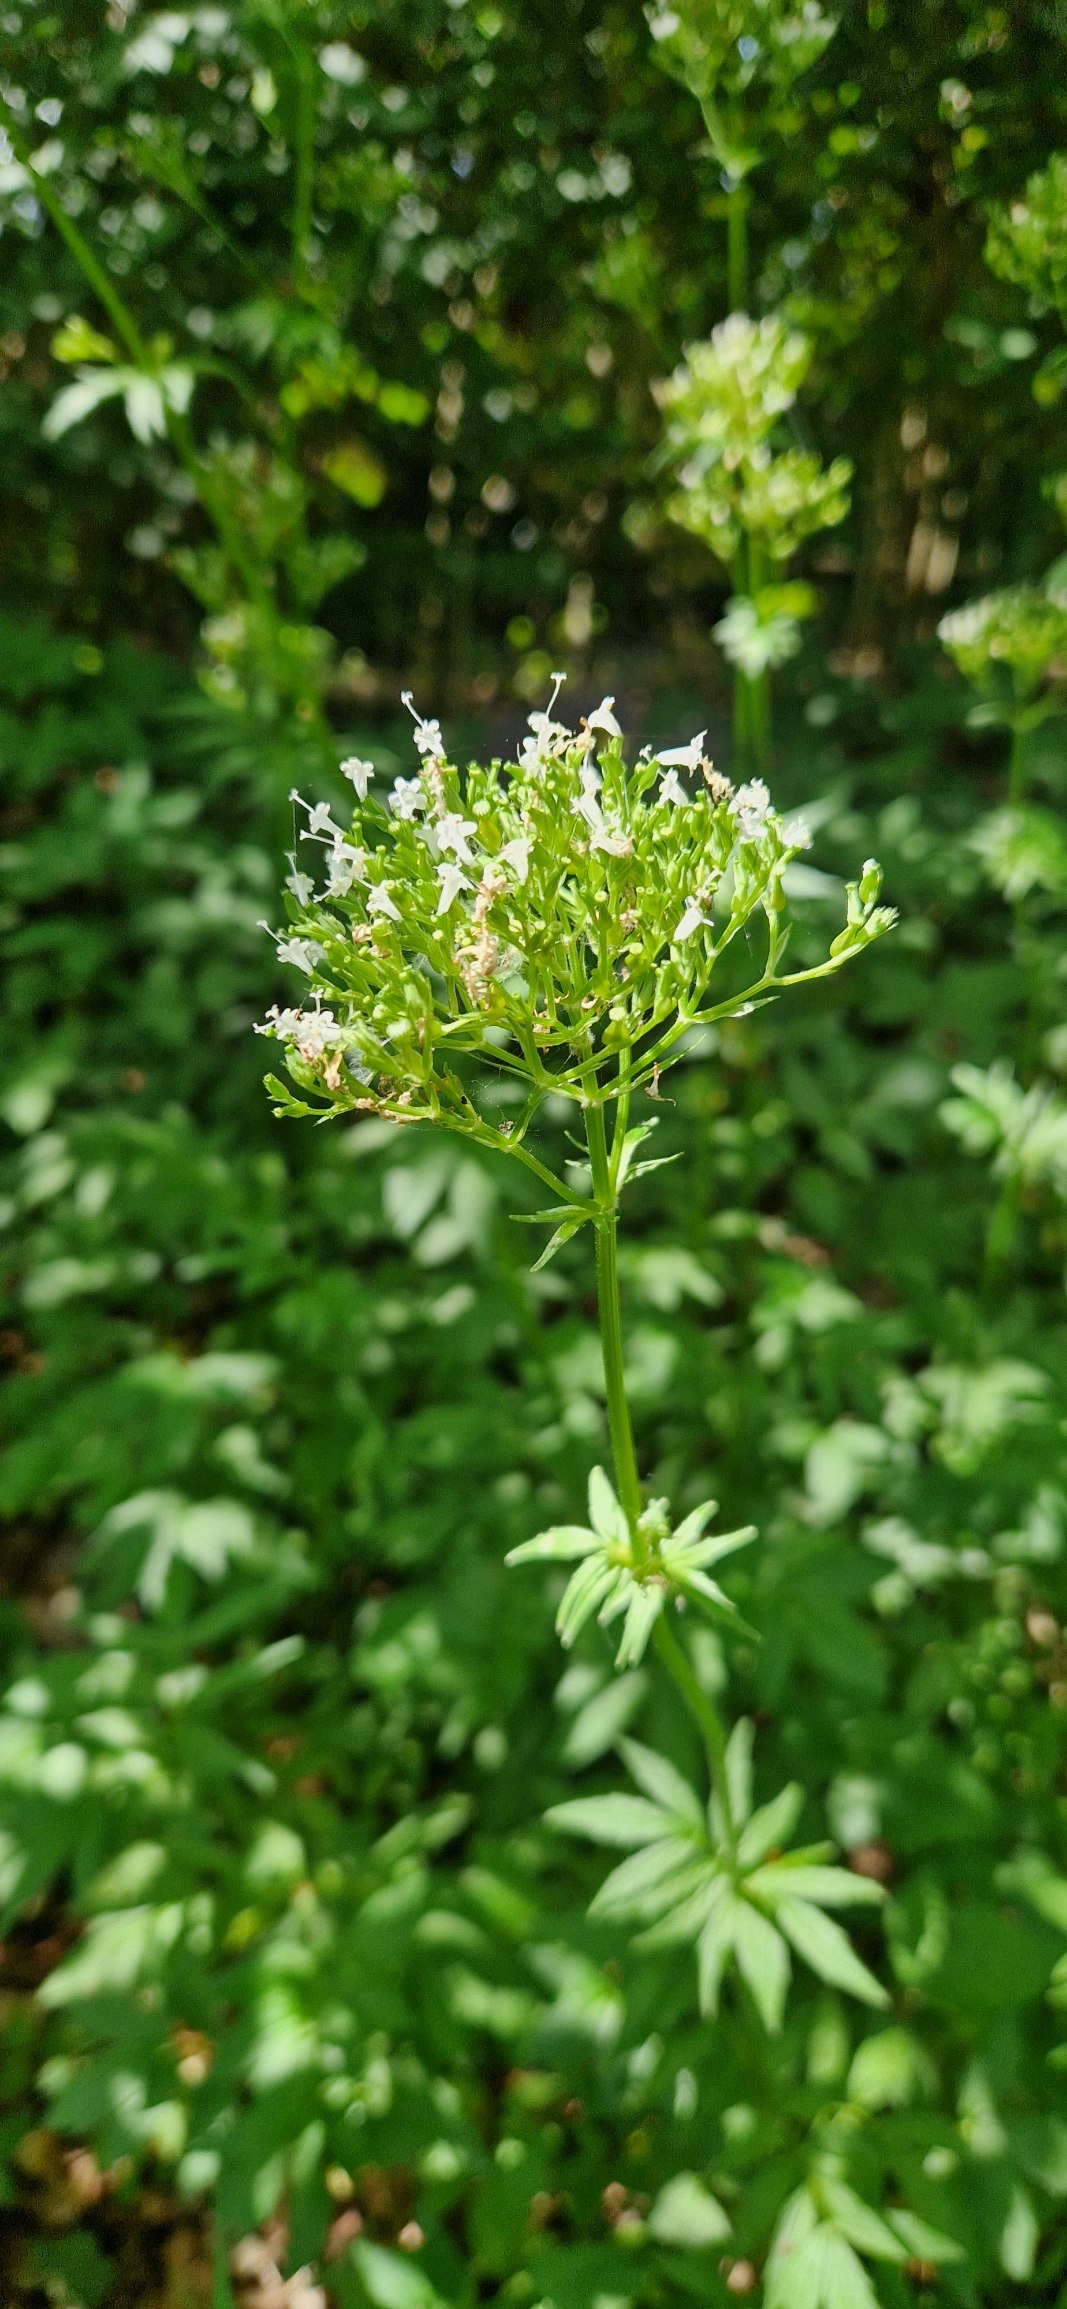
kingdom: Plantae
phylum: Tracheophyta
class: Magnoliopsida
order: Dipsacales
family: Caprifoliaceae
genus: Valeriana
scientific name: Valeriana excelsa
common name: Krybende baldrian
